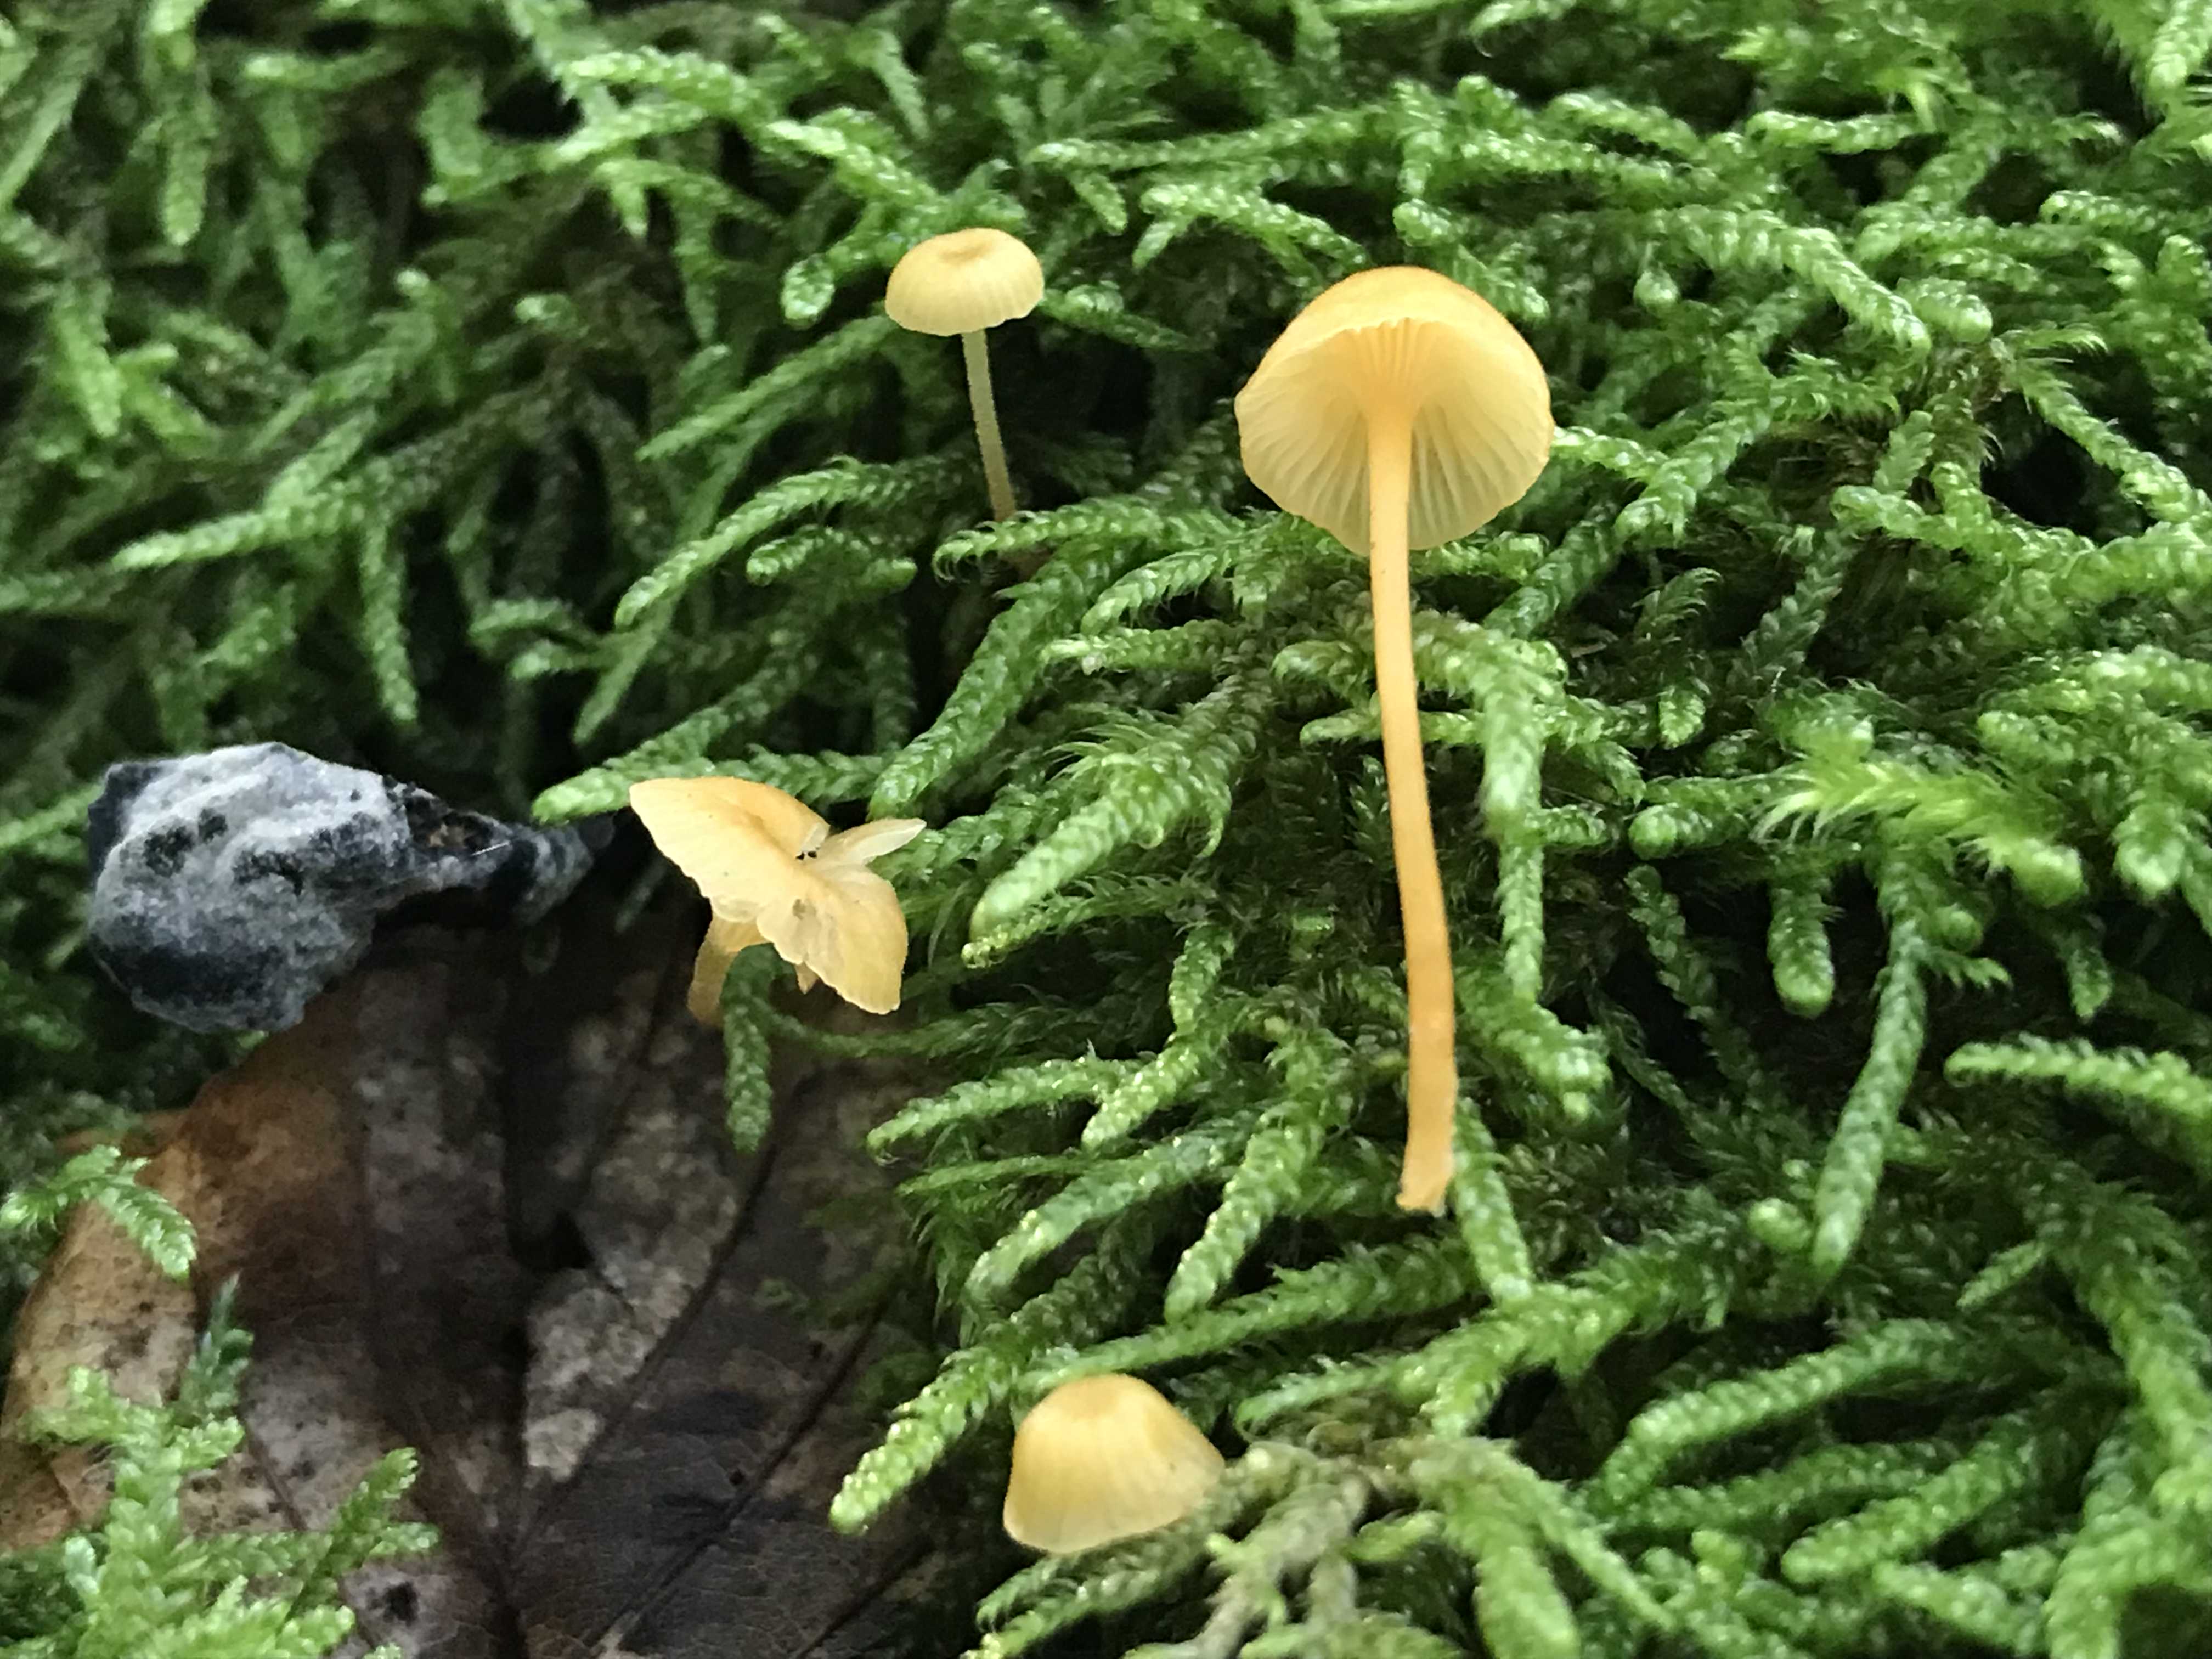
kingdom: Fungi
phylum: Basidiomycota
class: Agaricomycetes
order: Hymenochaetales
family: Rickenellaceae
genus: Rickenella
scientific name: Rickenella fibula
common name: orange mosnavlehat
